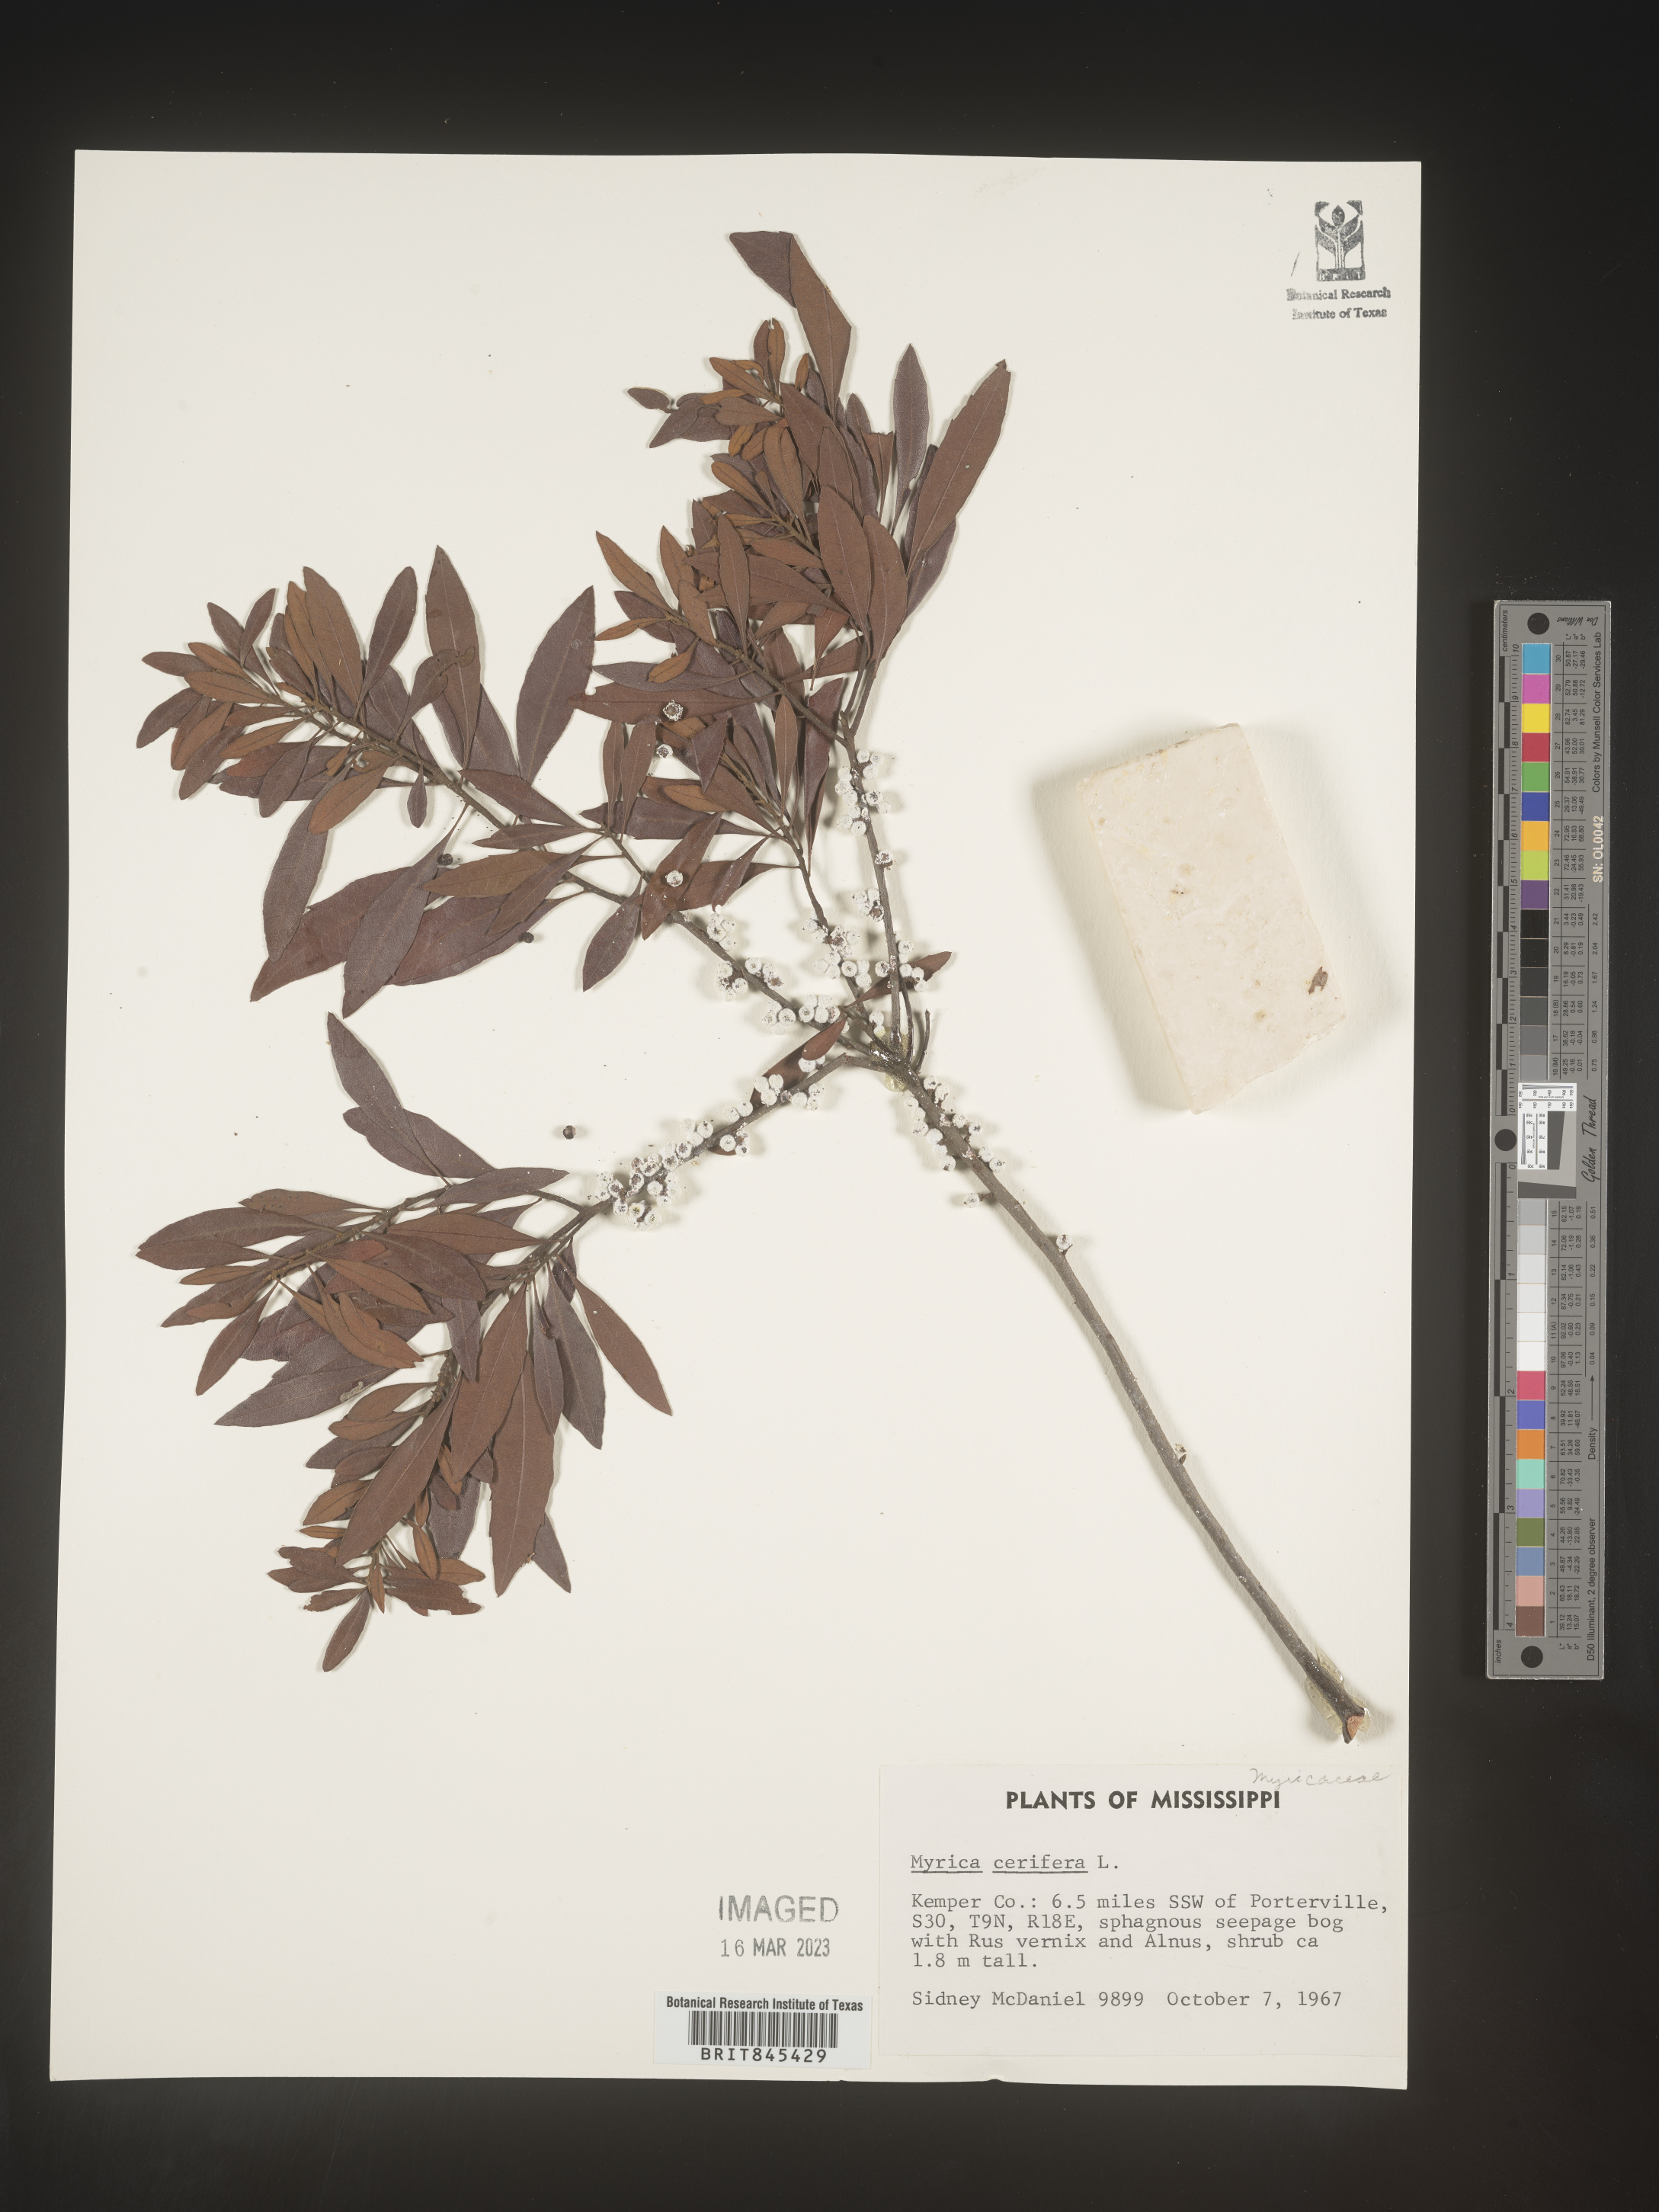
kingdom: Plantae
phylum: Tracheophyta
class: Magnoliopsida
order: Fagales
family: Myricaceae
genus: Morella
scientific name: Morella cerifera
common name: Wax myrtle
